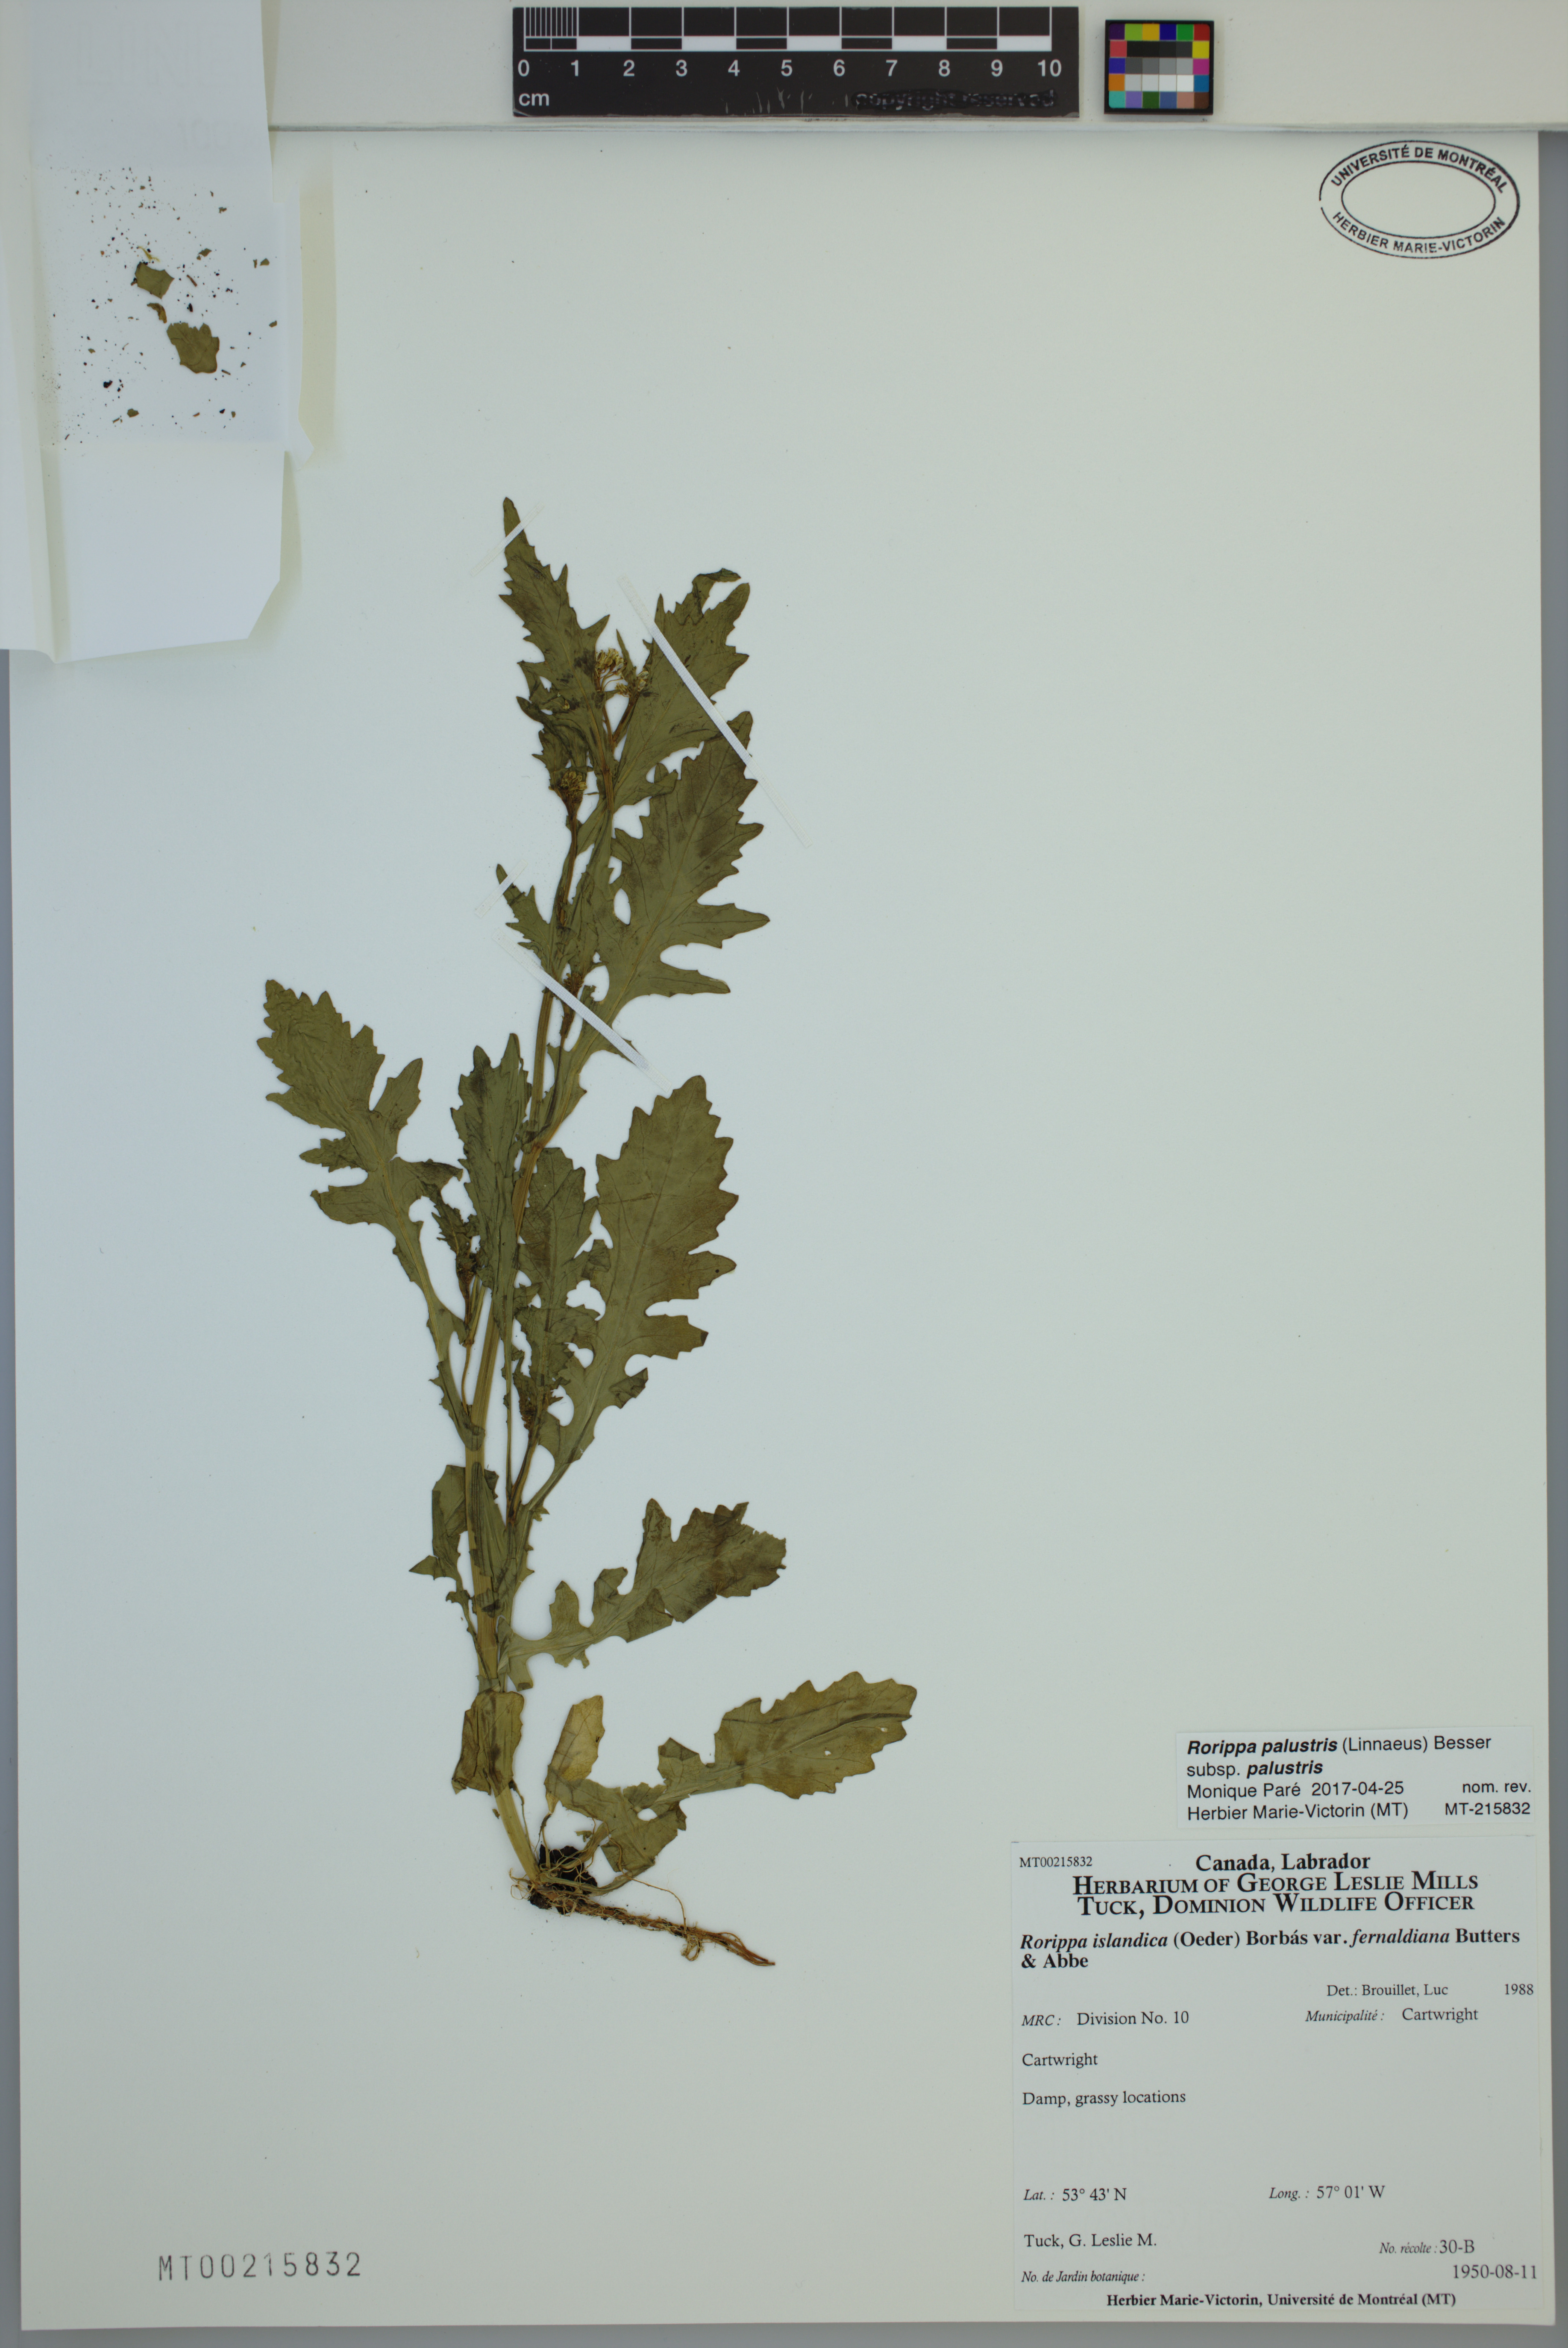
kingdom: Plantae
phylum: Tracheophyta
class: Magnoliopsida
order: Brassicales
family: Brassicaceae
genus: Rorippa
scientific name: Rorippa palustris
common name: Marsh yellow-cress
